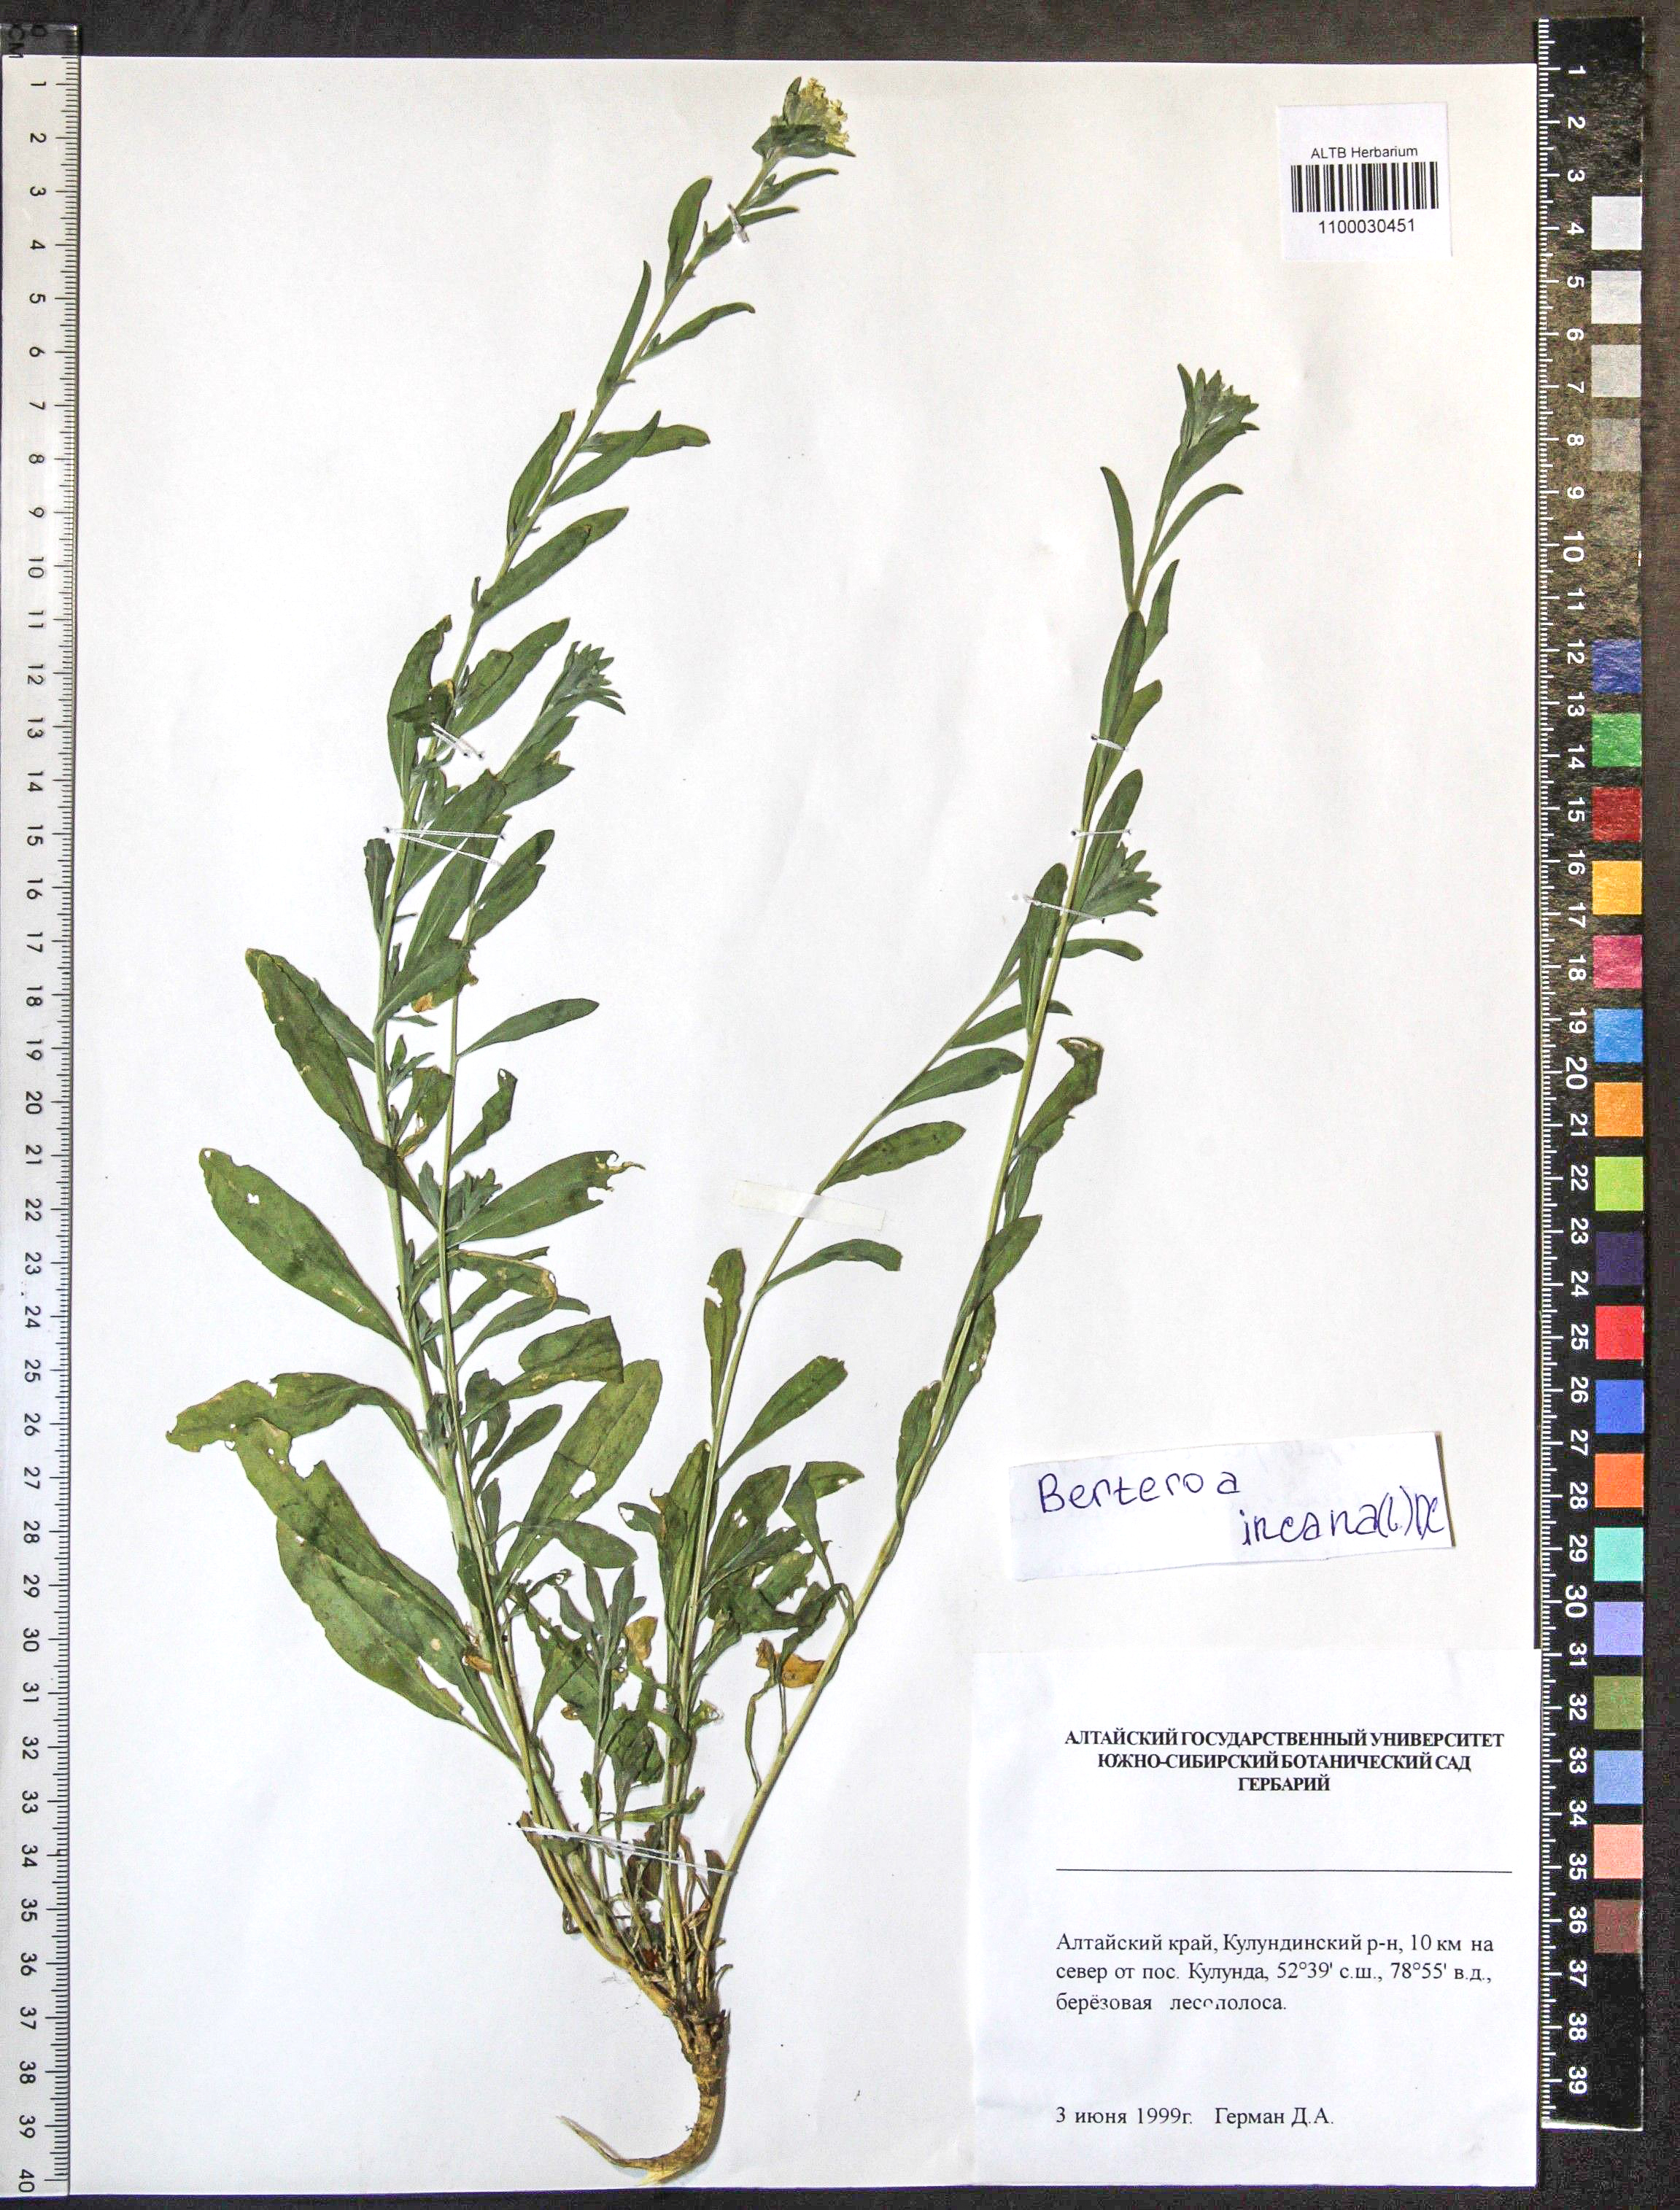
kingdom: Plantae
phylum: Tracheophyta
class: Magnoliopsida
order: Brassicales
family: Brassicaceae
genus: Berteroa
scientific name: Berteroa incana
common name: Hoary alison
